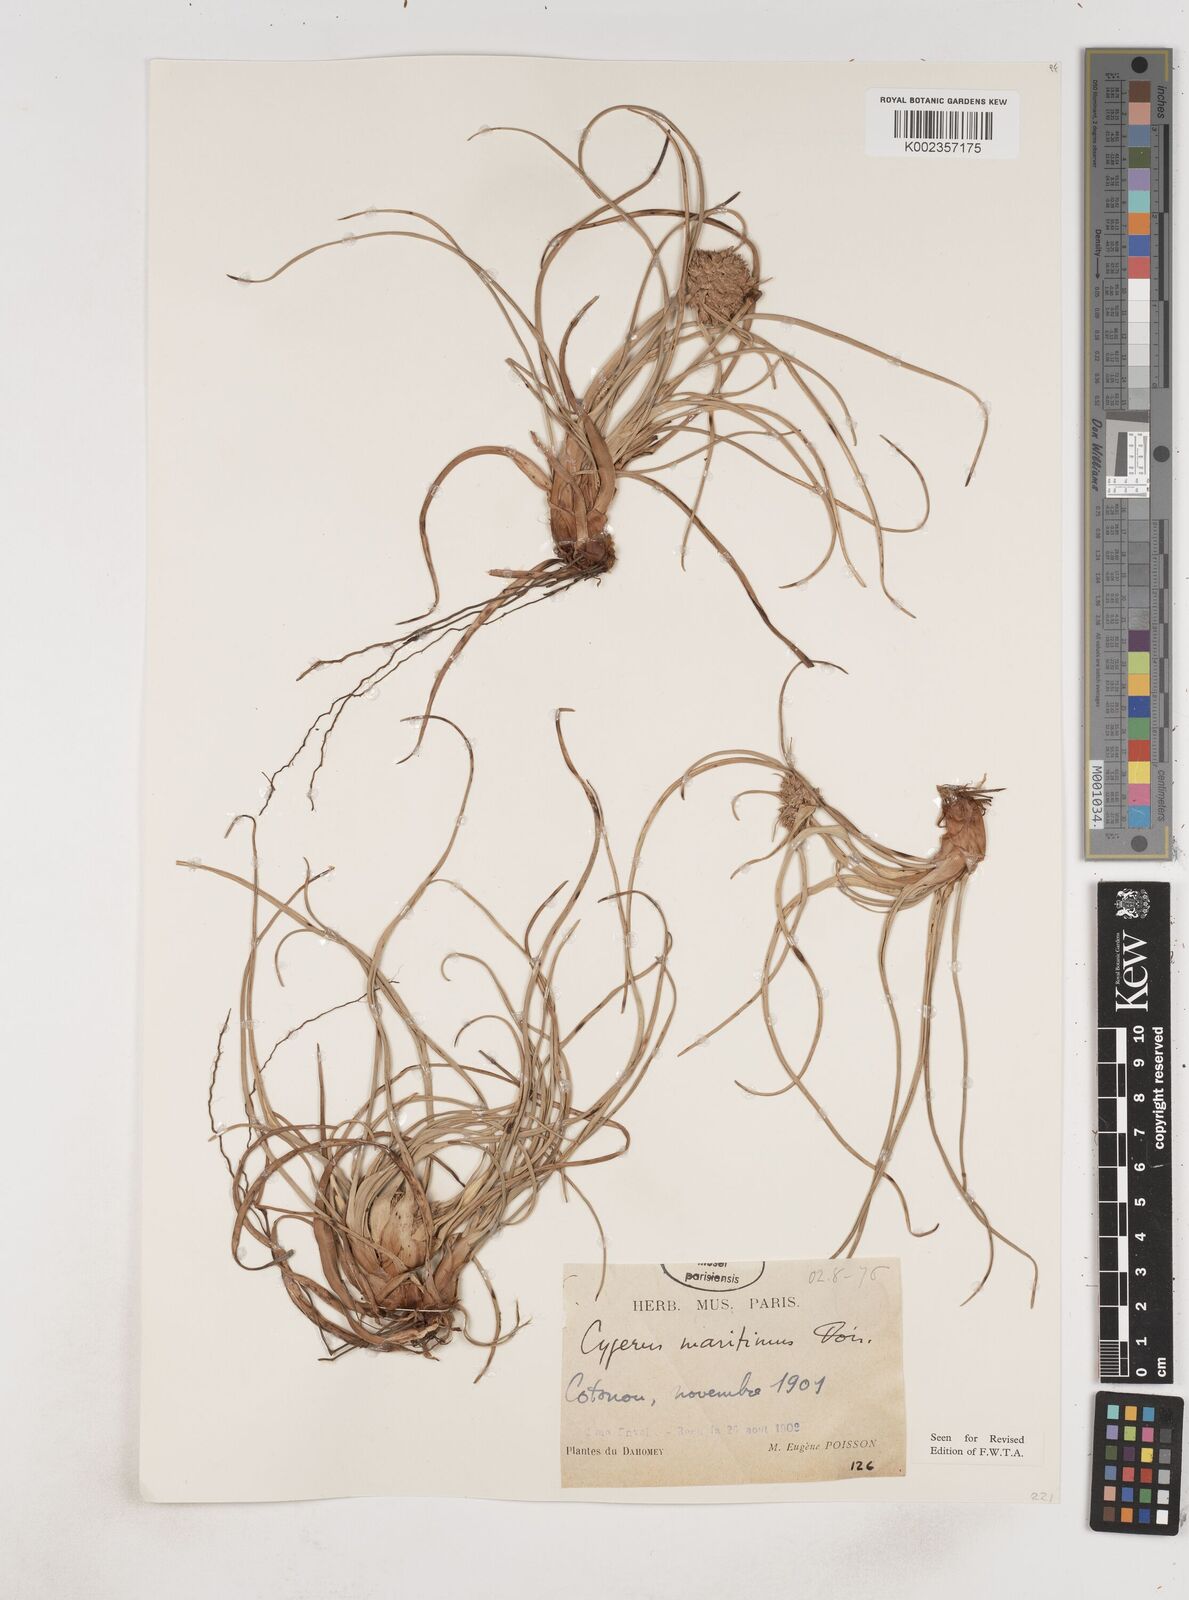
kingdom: Plantae
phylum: Tracheophyta
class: Liliopsida
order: Poales
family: Cyperaceae
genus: Cyperus
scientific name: Cyperus crassipes
